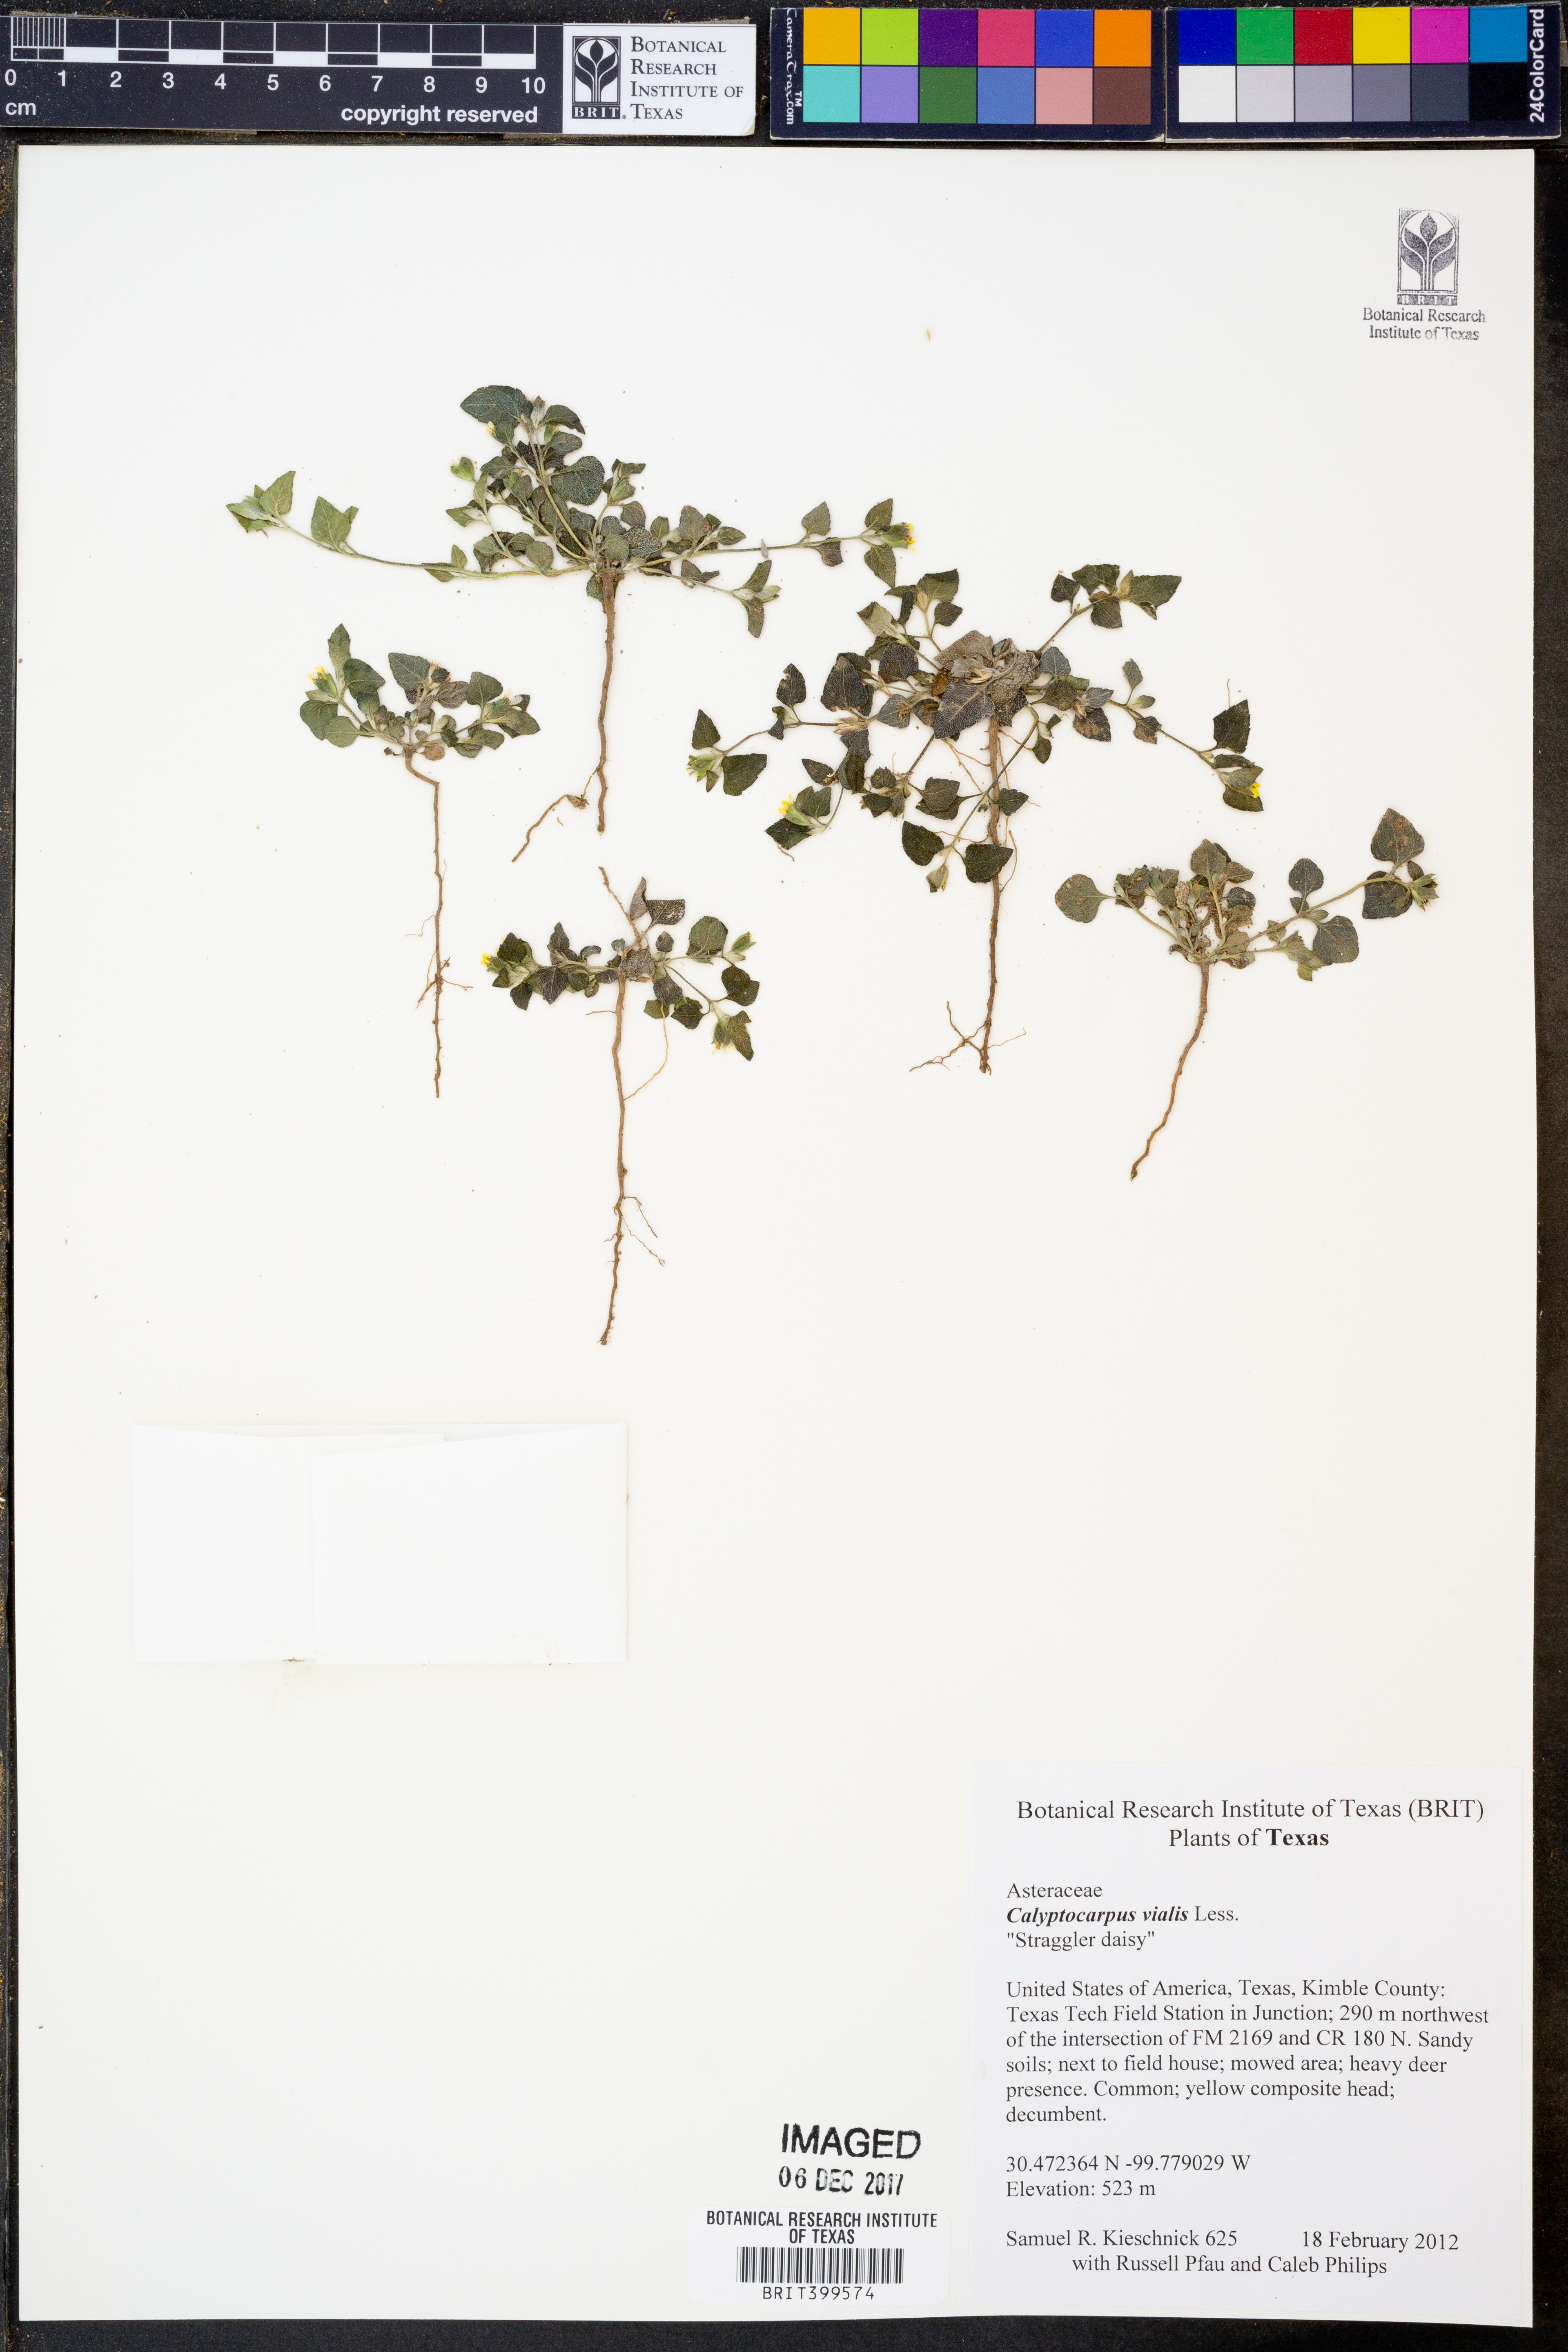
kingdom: Plantae
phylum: Tracheophyta
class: Magnoliopsida
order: Asterales
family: Asteraceae
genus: Calyptocarpus
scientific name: Calyptocarpus vialis
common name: Straggler daisy
